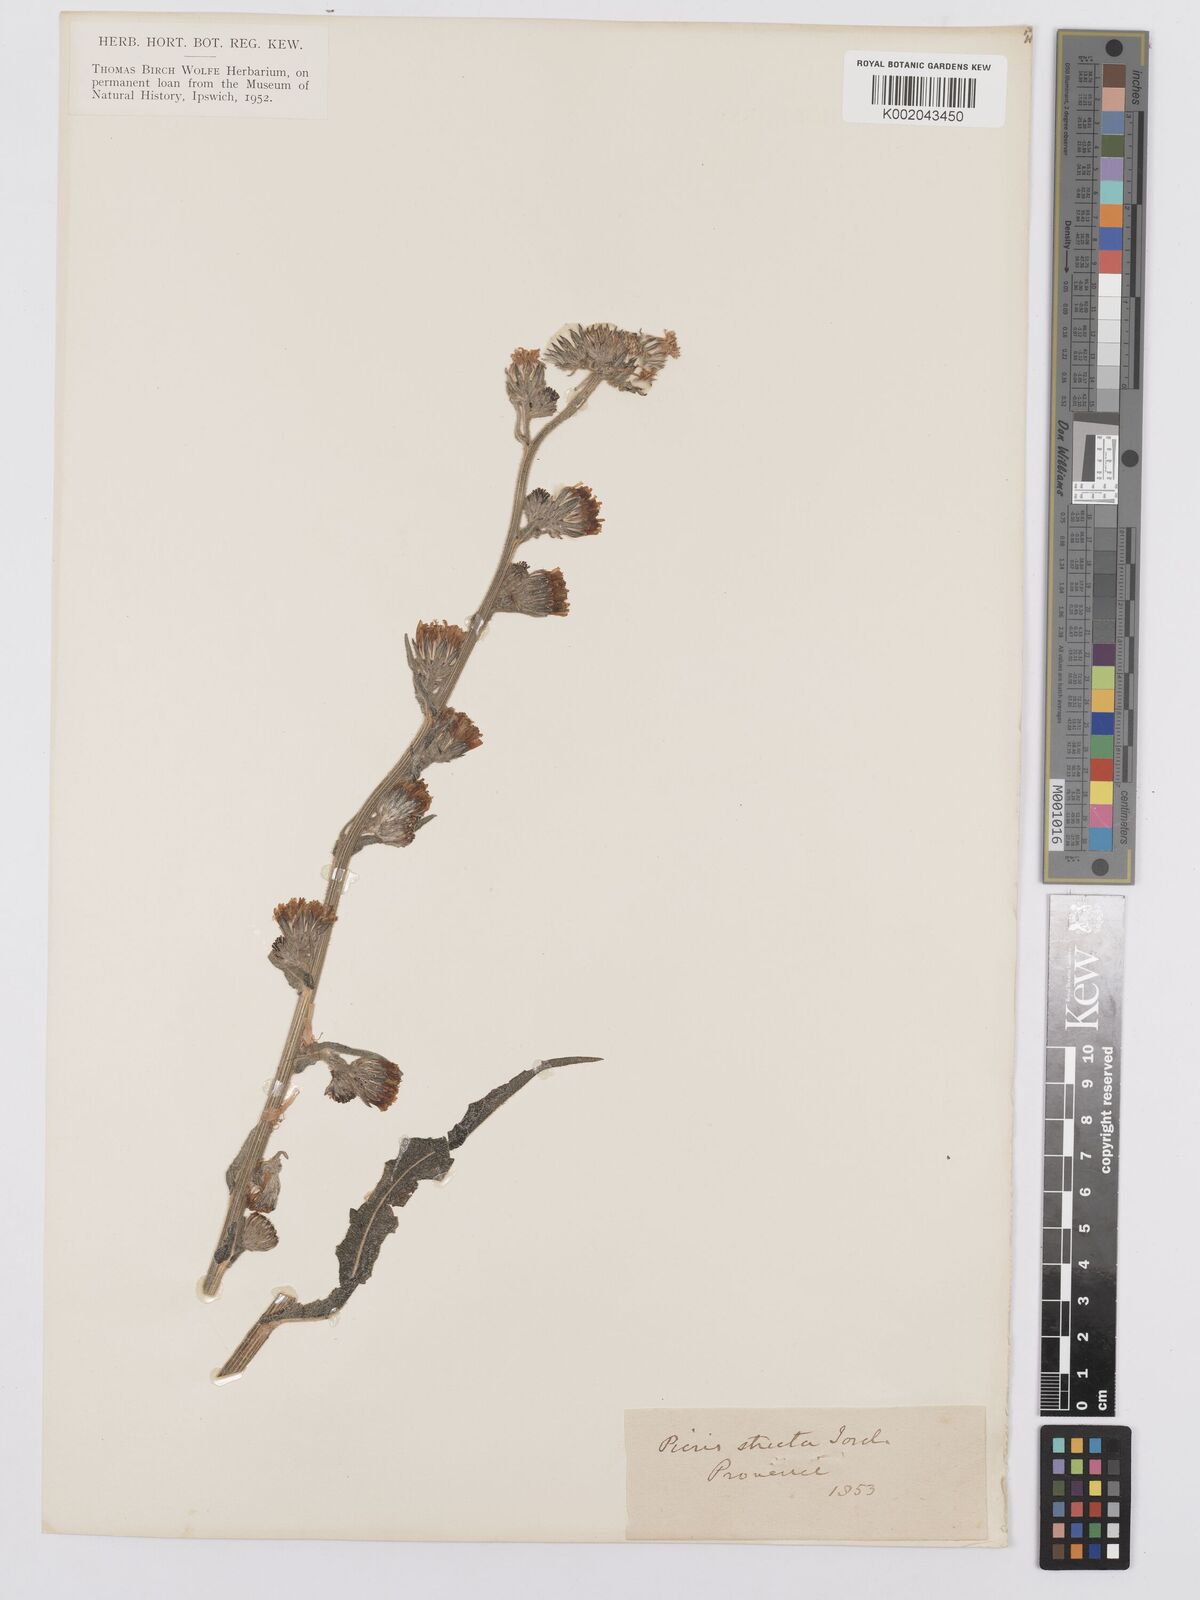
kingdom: Plantae
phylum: Tracheophyta
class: Magnoliopsida
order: Asterales
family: Asteraceae
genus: Picris
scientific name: Picris hieracioides
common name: Hawkweed oxtongue
